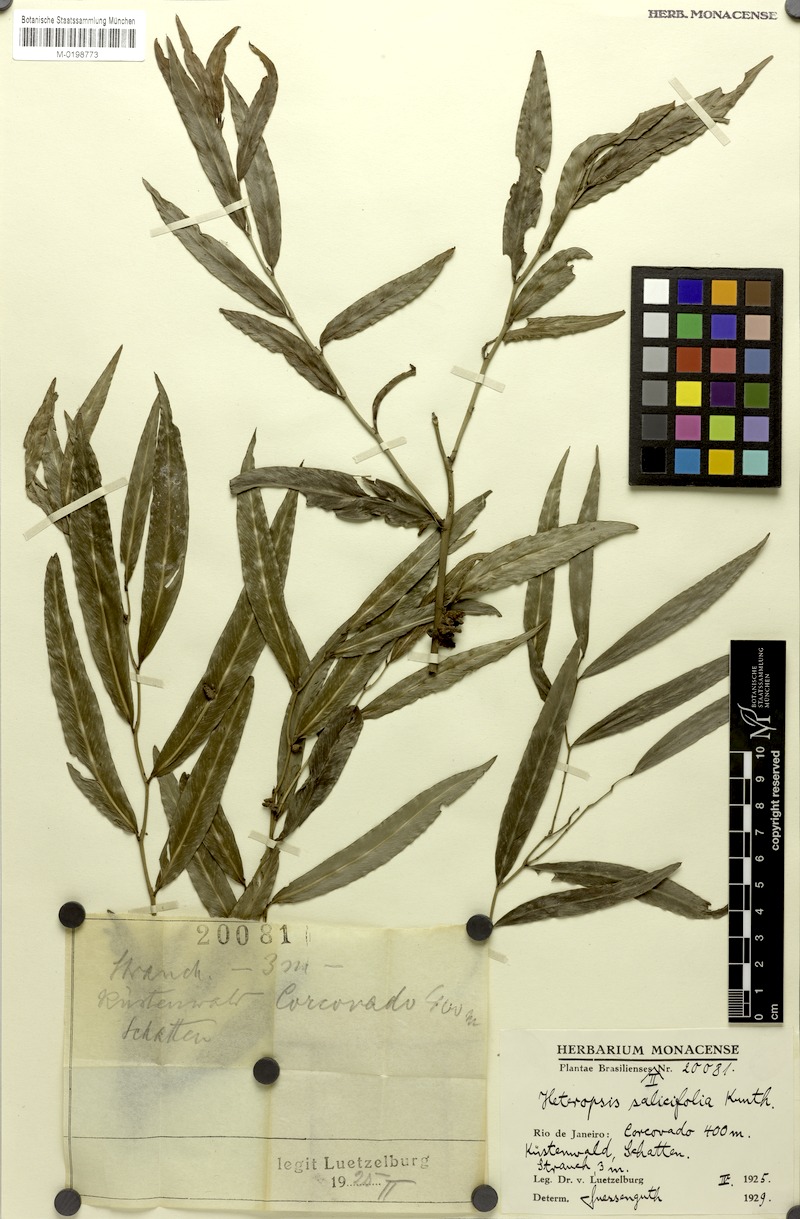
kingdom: Plantae
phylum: Tracheophyta
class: Liliopsida
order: Alismatales
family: Araceae
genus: Heteropsis
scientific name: Heteropsis salicifolia
